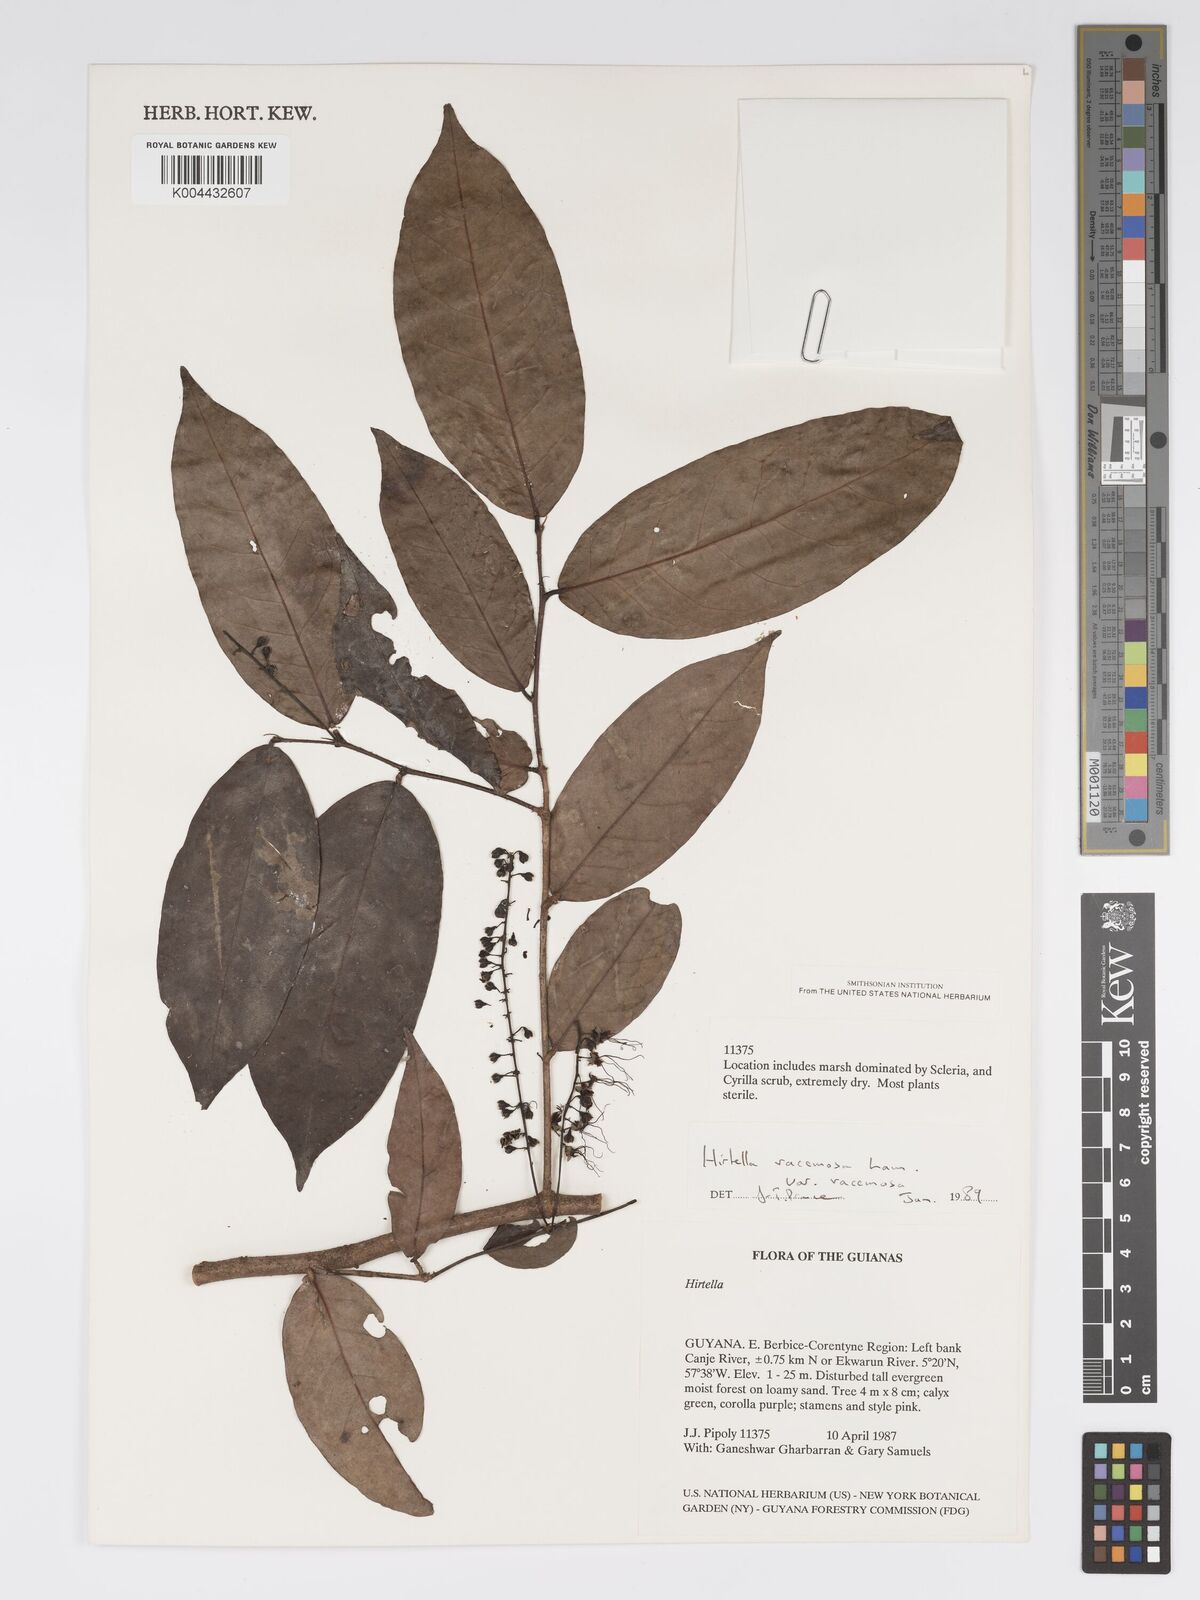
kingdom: Plantae
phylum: Tracheophyta
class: Magnoliopsida
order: Malpighiales
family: Chrysobalanaceae
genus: Hirtella
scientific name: Hirtella racemosa
